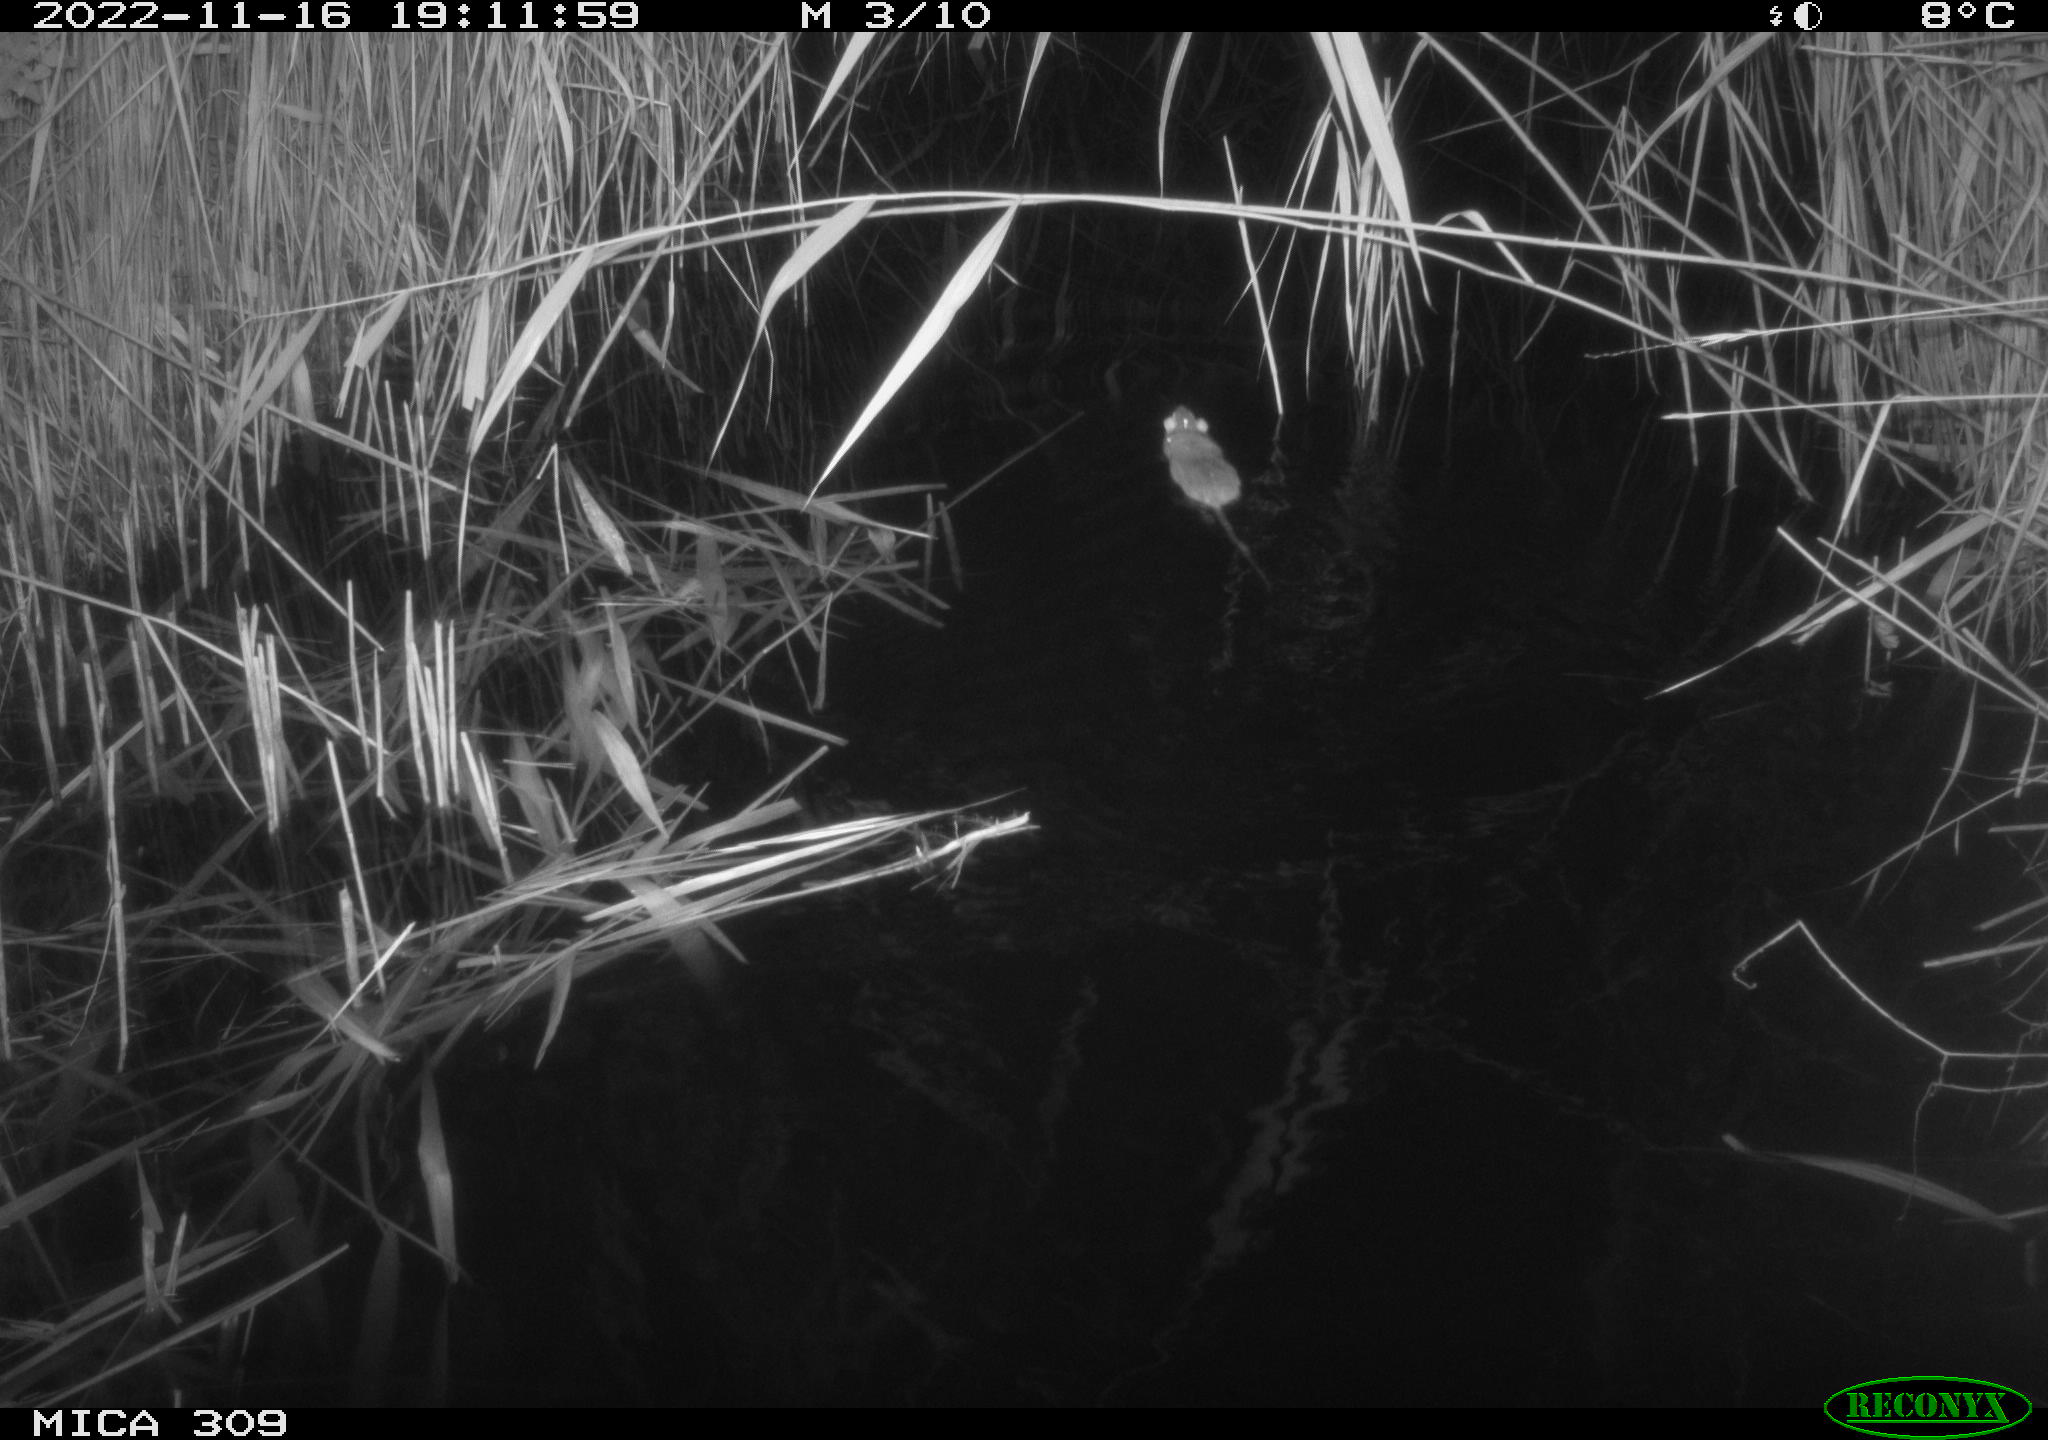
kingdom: Animalia
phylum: Chordata
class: Mammalia
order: Rodentia
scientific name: Rodentia
